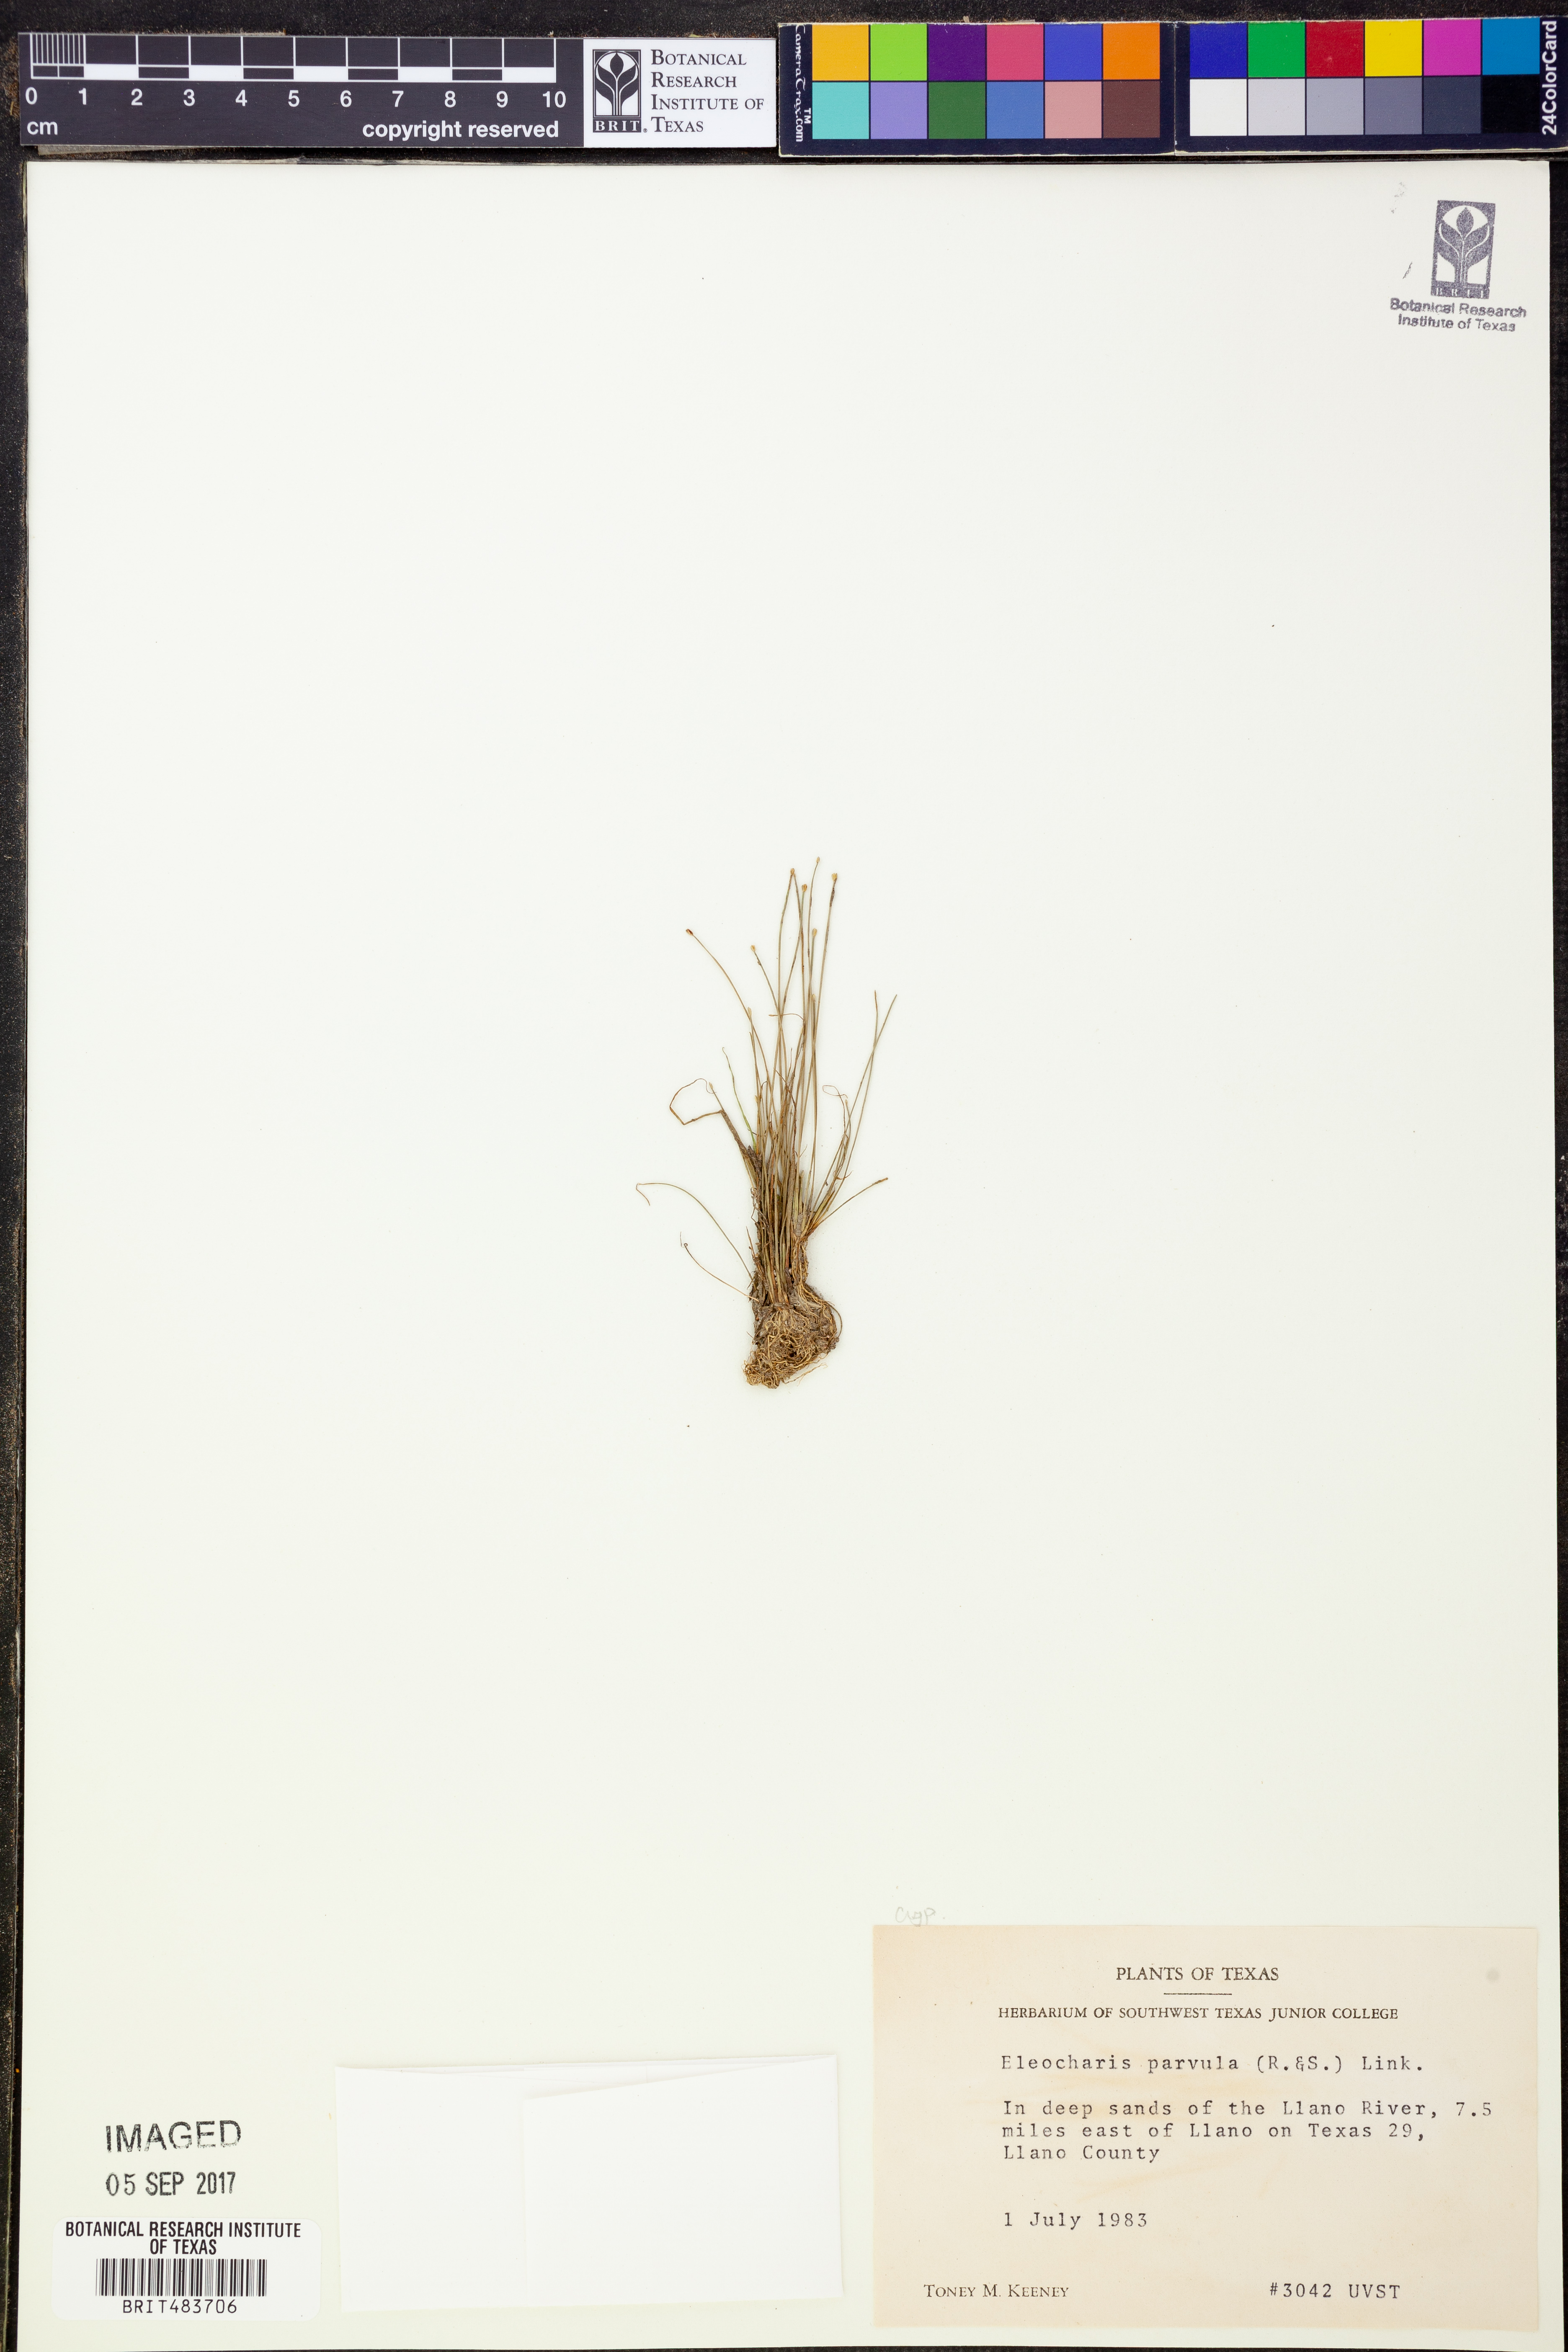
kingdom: Plantae
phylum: Tracheophyta
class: Liliopsida
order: Poales
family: Cyperaceae
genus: Eleocharis
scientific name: Eleocharis parvula
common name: Dwarf spike-rush
